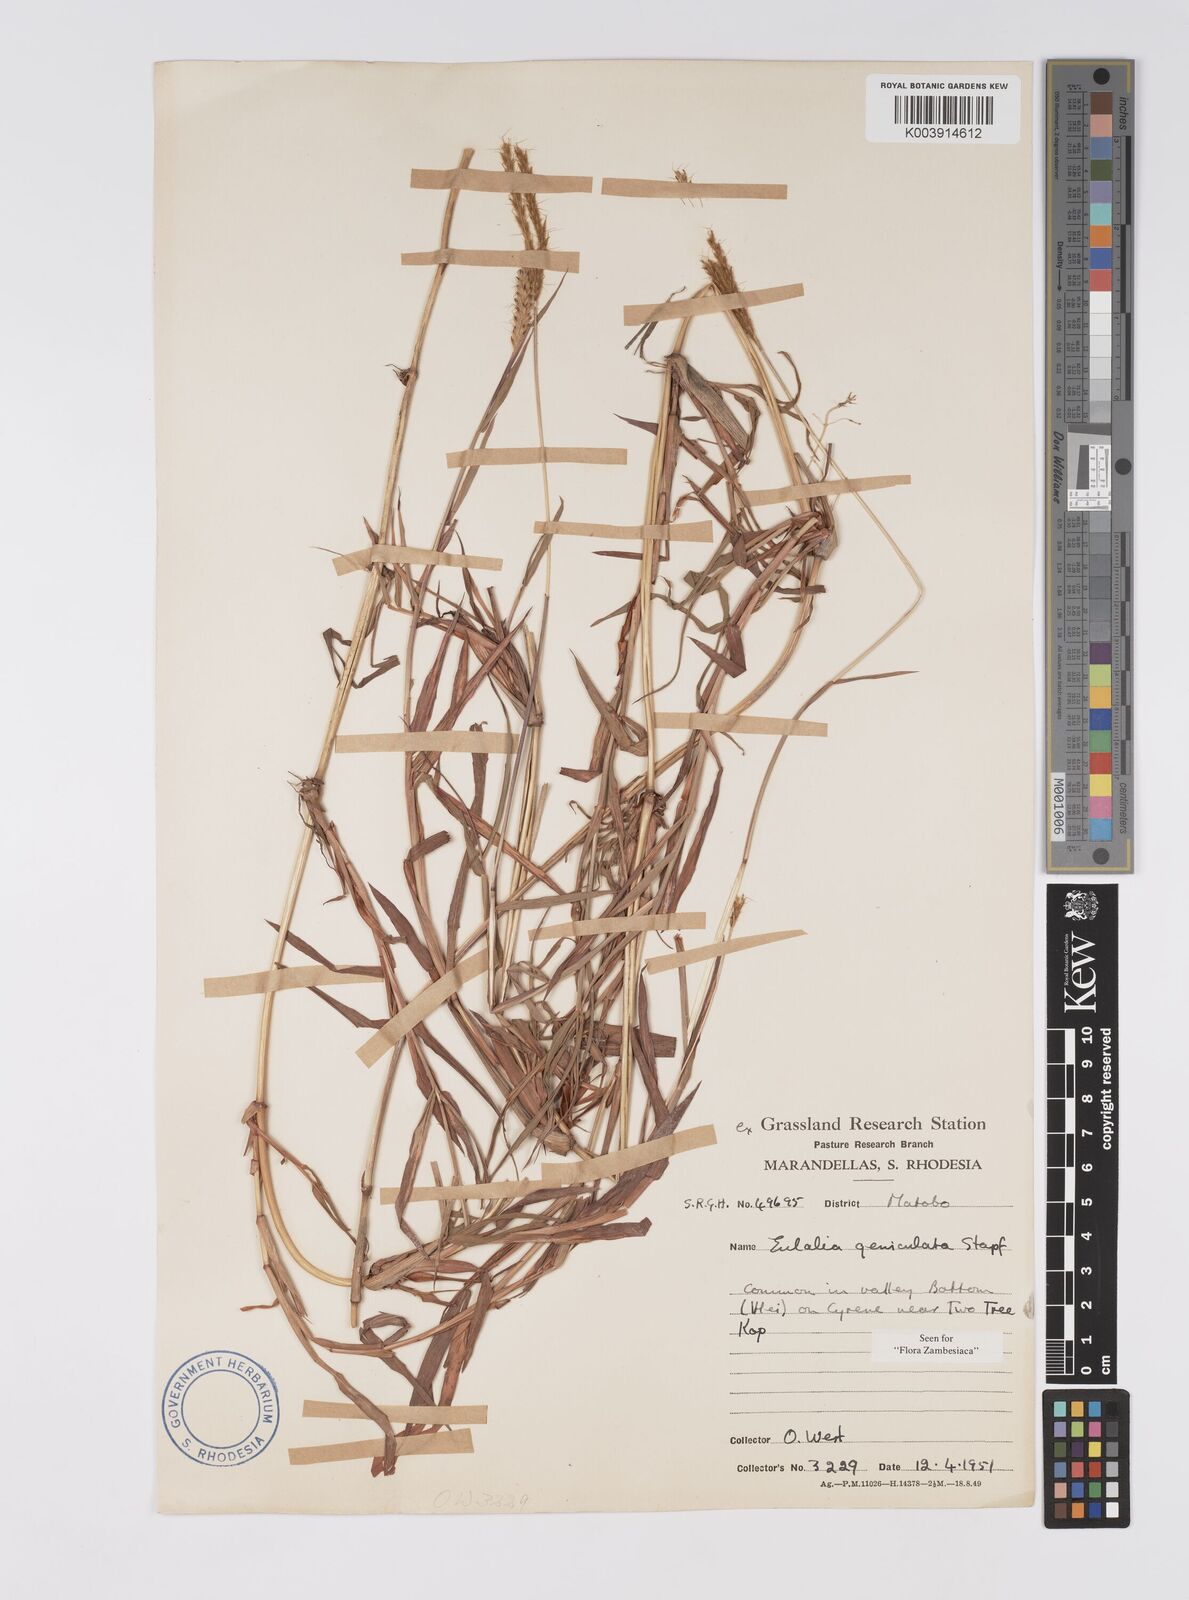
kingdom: Plantae
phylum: Tracheophyta
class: Liliopsida
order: Poales
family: Poaceae
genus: Eulalia
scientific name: Eulalia aurea
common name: Silky browntop
